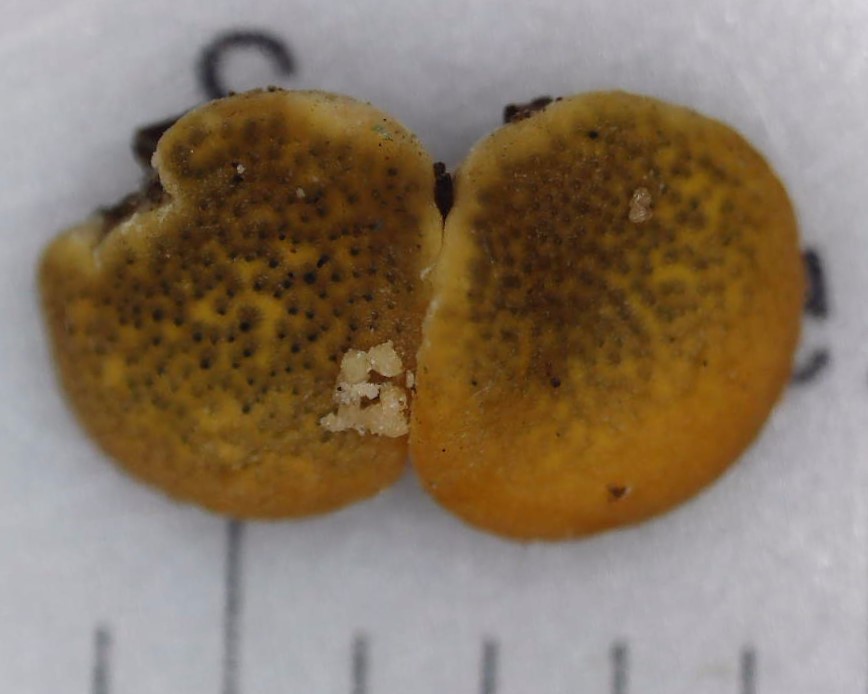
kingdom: Fungi
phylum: Ascomycota
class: Sordariomycetes
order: Hypocreales
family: Hypocreaceae
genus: Trichoderma
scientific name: Trichoderma aureoviride
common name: æggegul kødkerne
